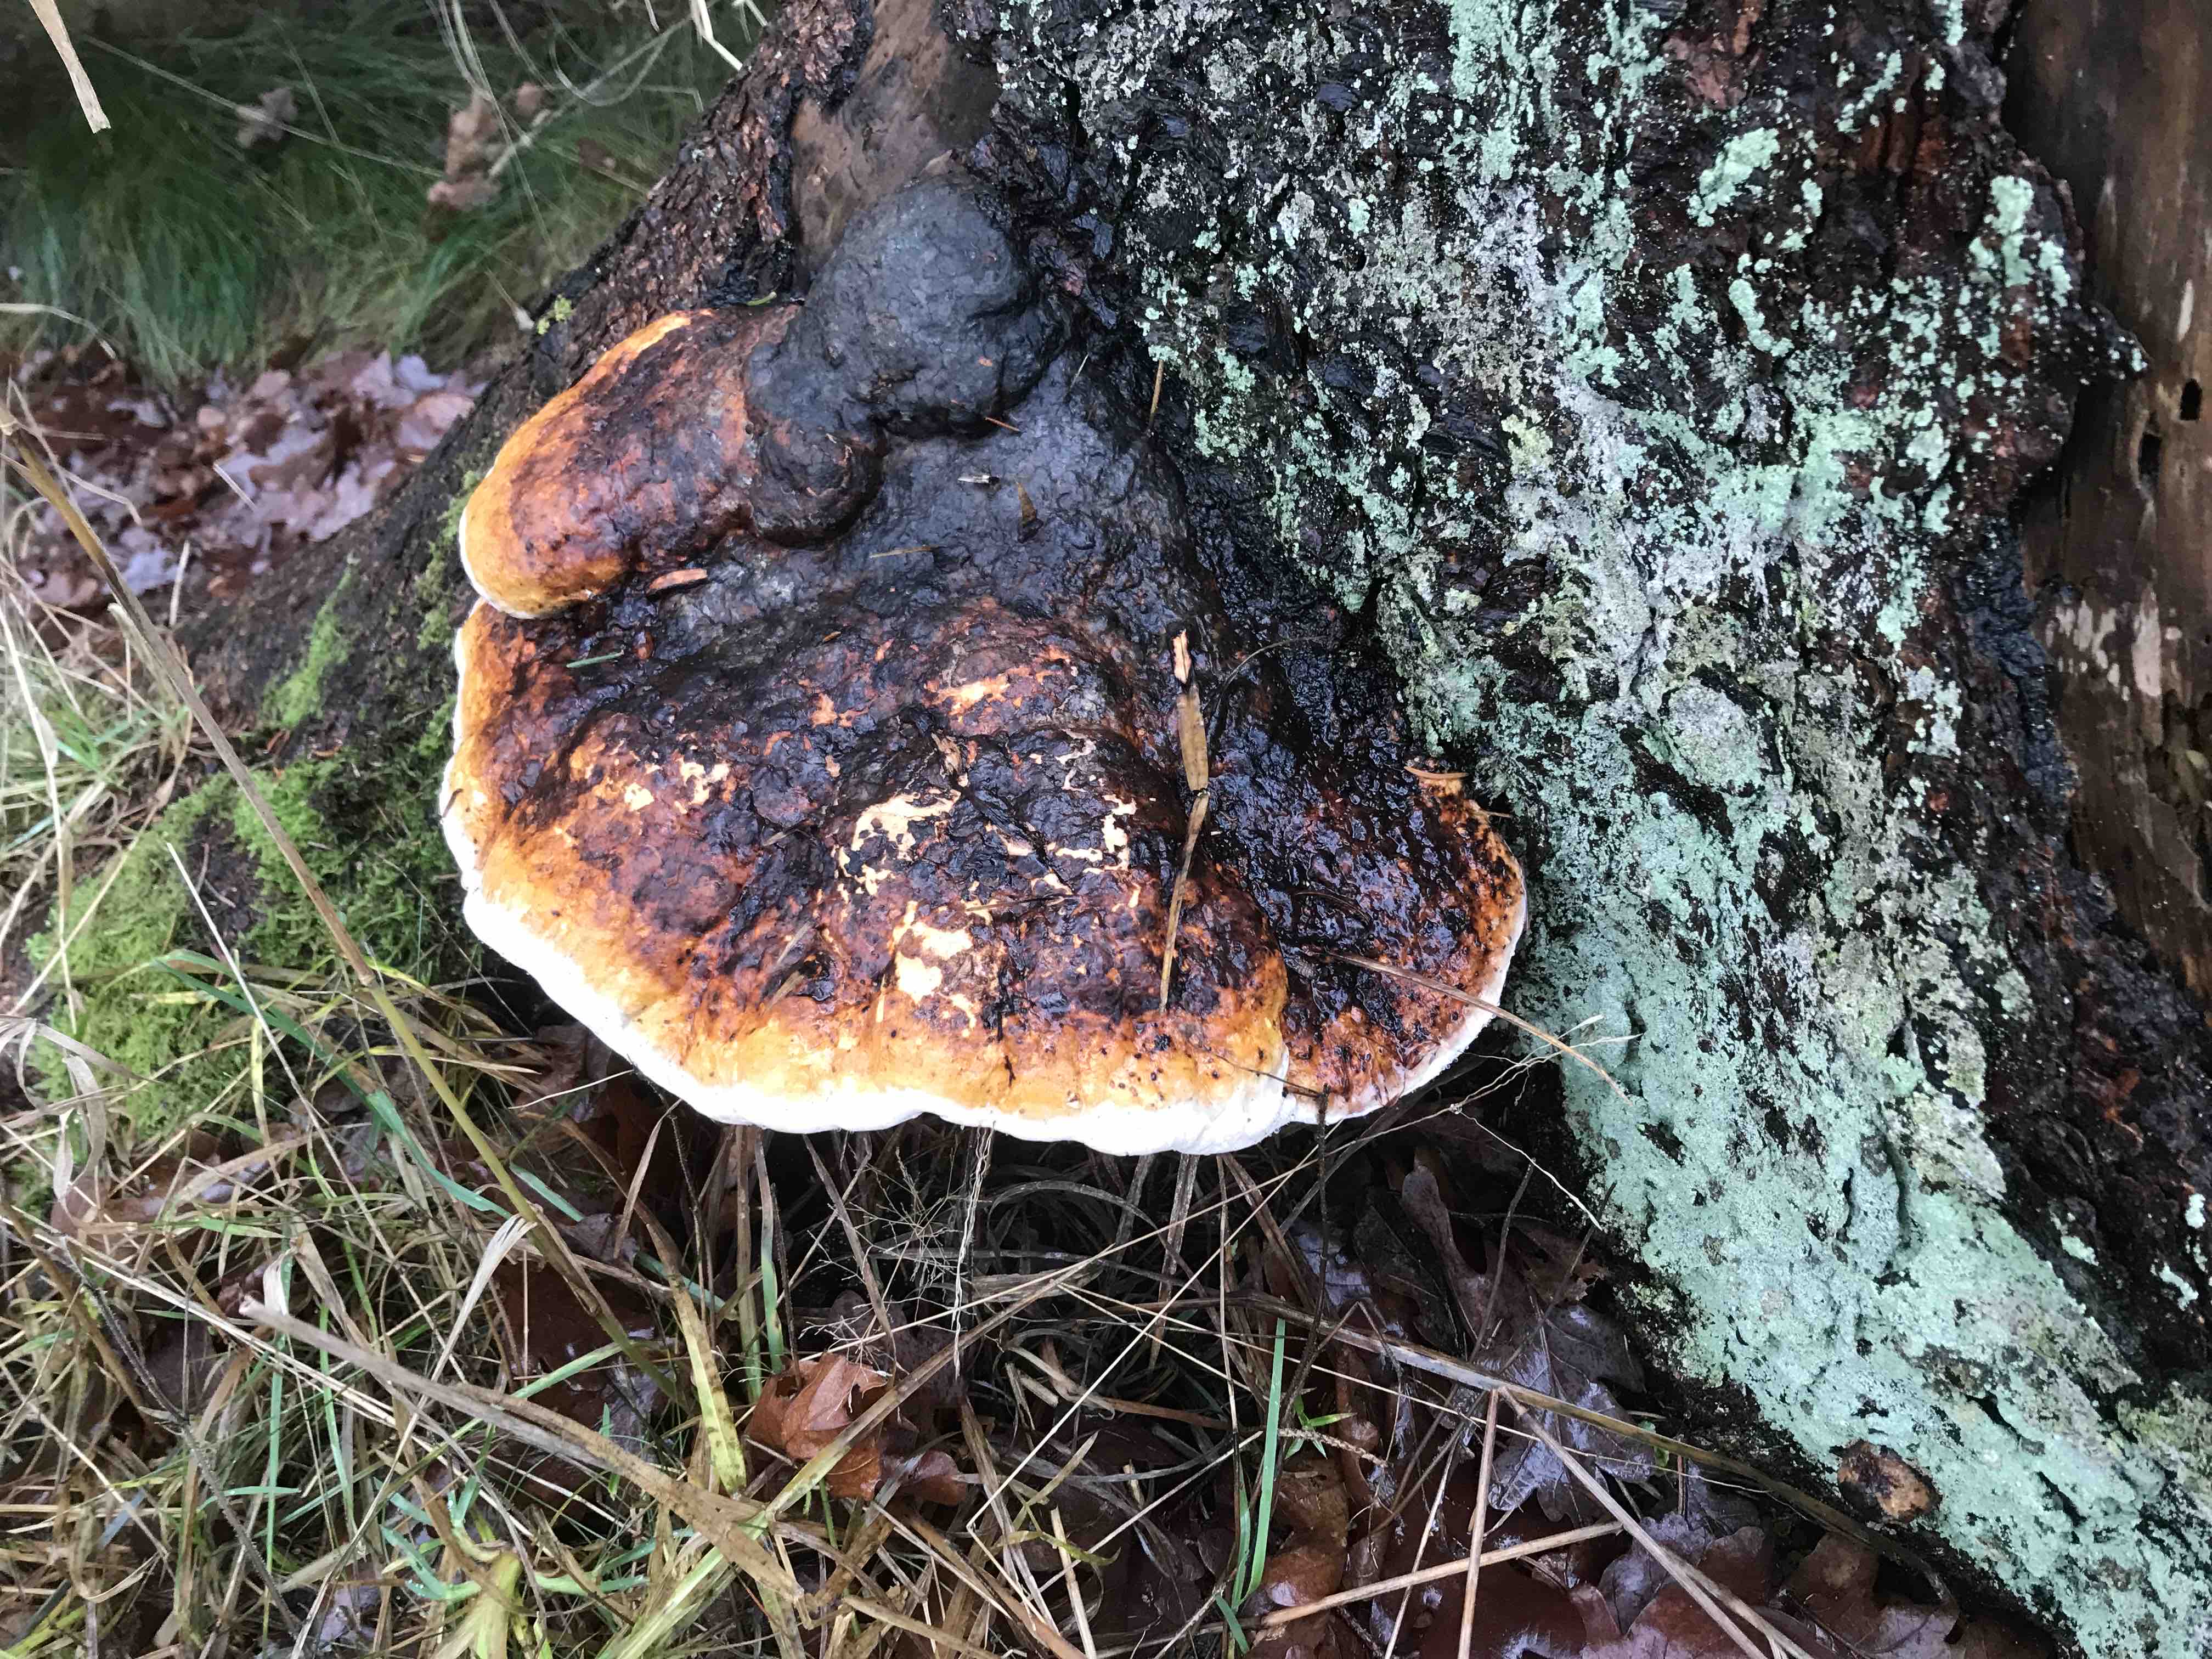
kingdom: Fungi
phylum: Basidiomycota
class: Agaricomycetes
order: Polyporales
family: Fomitopsidaceae
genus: Fomitopsis
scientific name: Fomitopsis pinicola
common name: randbæltet hovporesvamp
